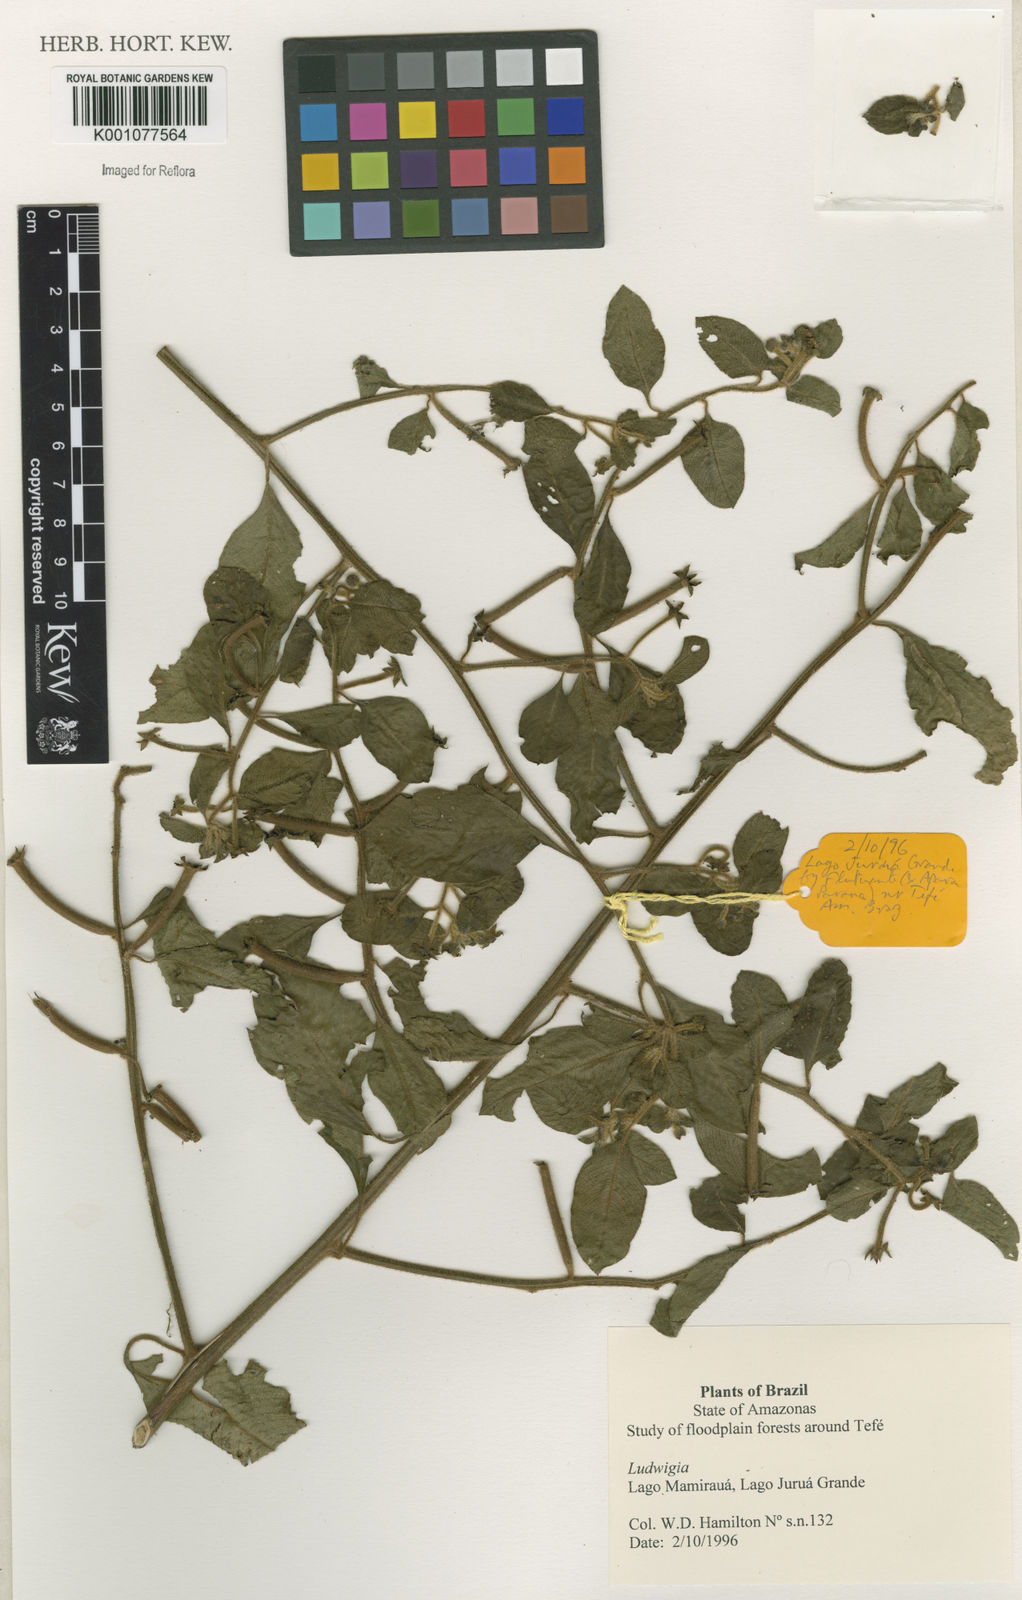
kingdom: Plantae
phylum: Tracheophyta
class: Magnoliopsida
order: Myrtales
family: Onagraceae
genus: Ludwigia
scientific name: Ludwigia
